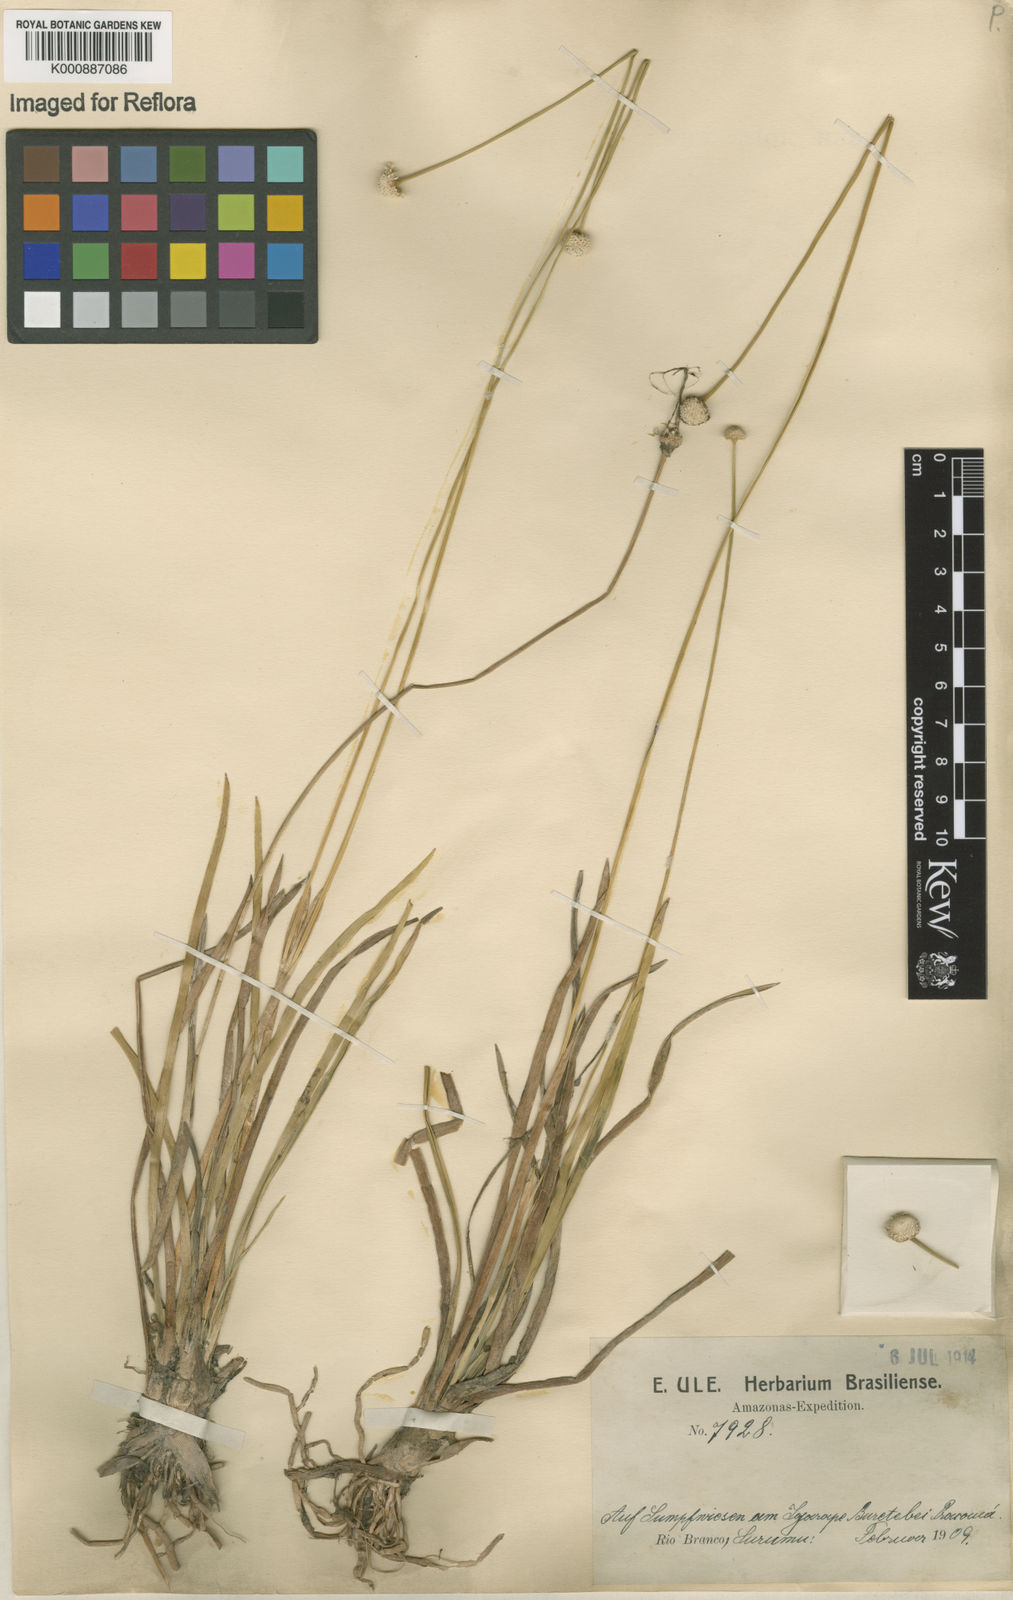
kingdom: Plantae
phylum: Tracheophyta
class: Liliopsida
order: Poales
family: Eriocaulaceae
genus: Eriocaulon
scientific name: Eriocaulon
